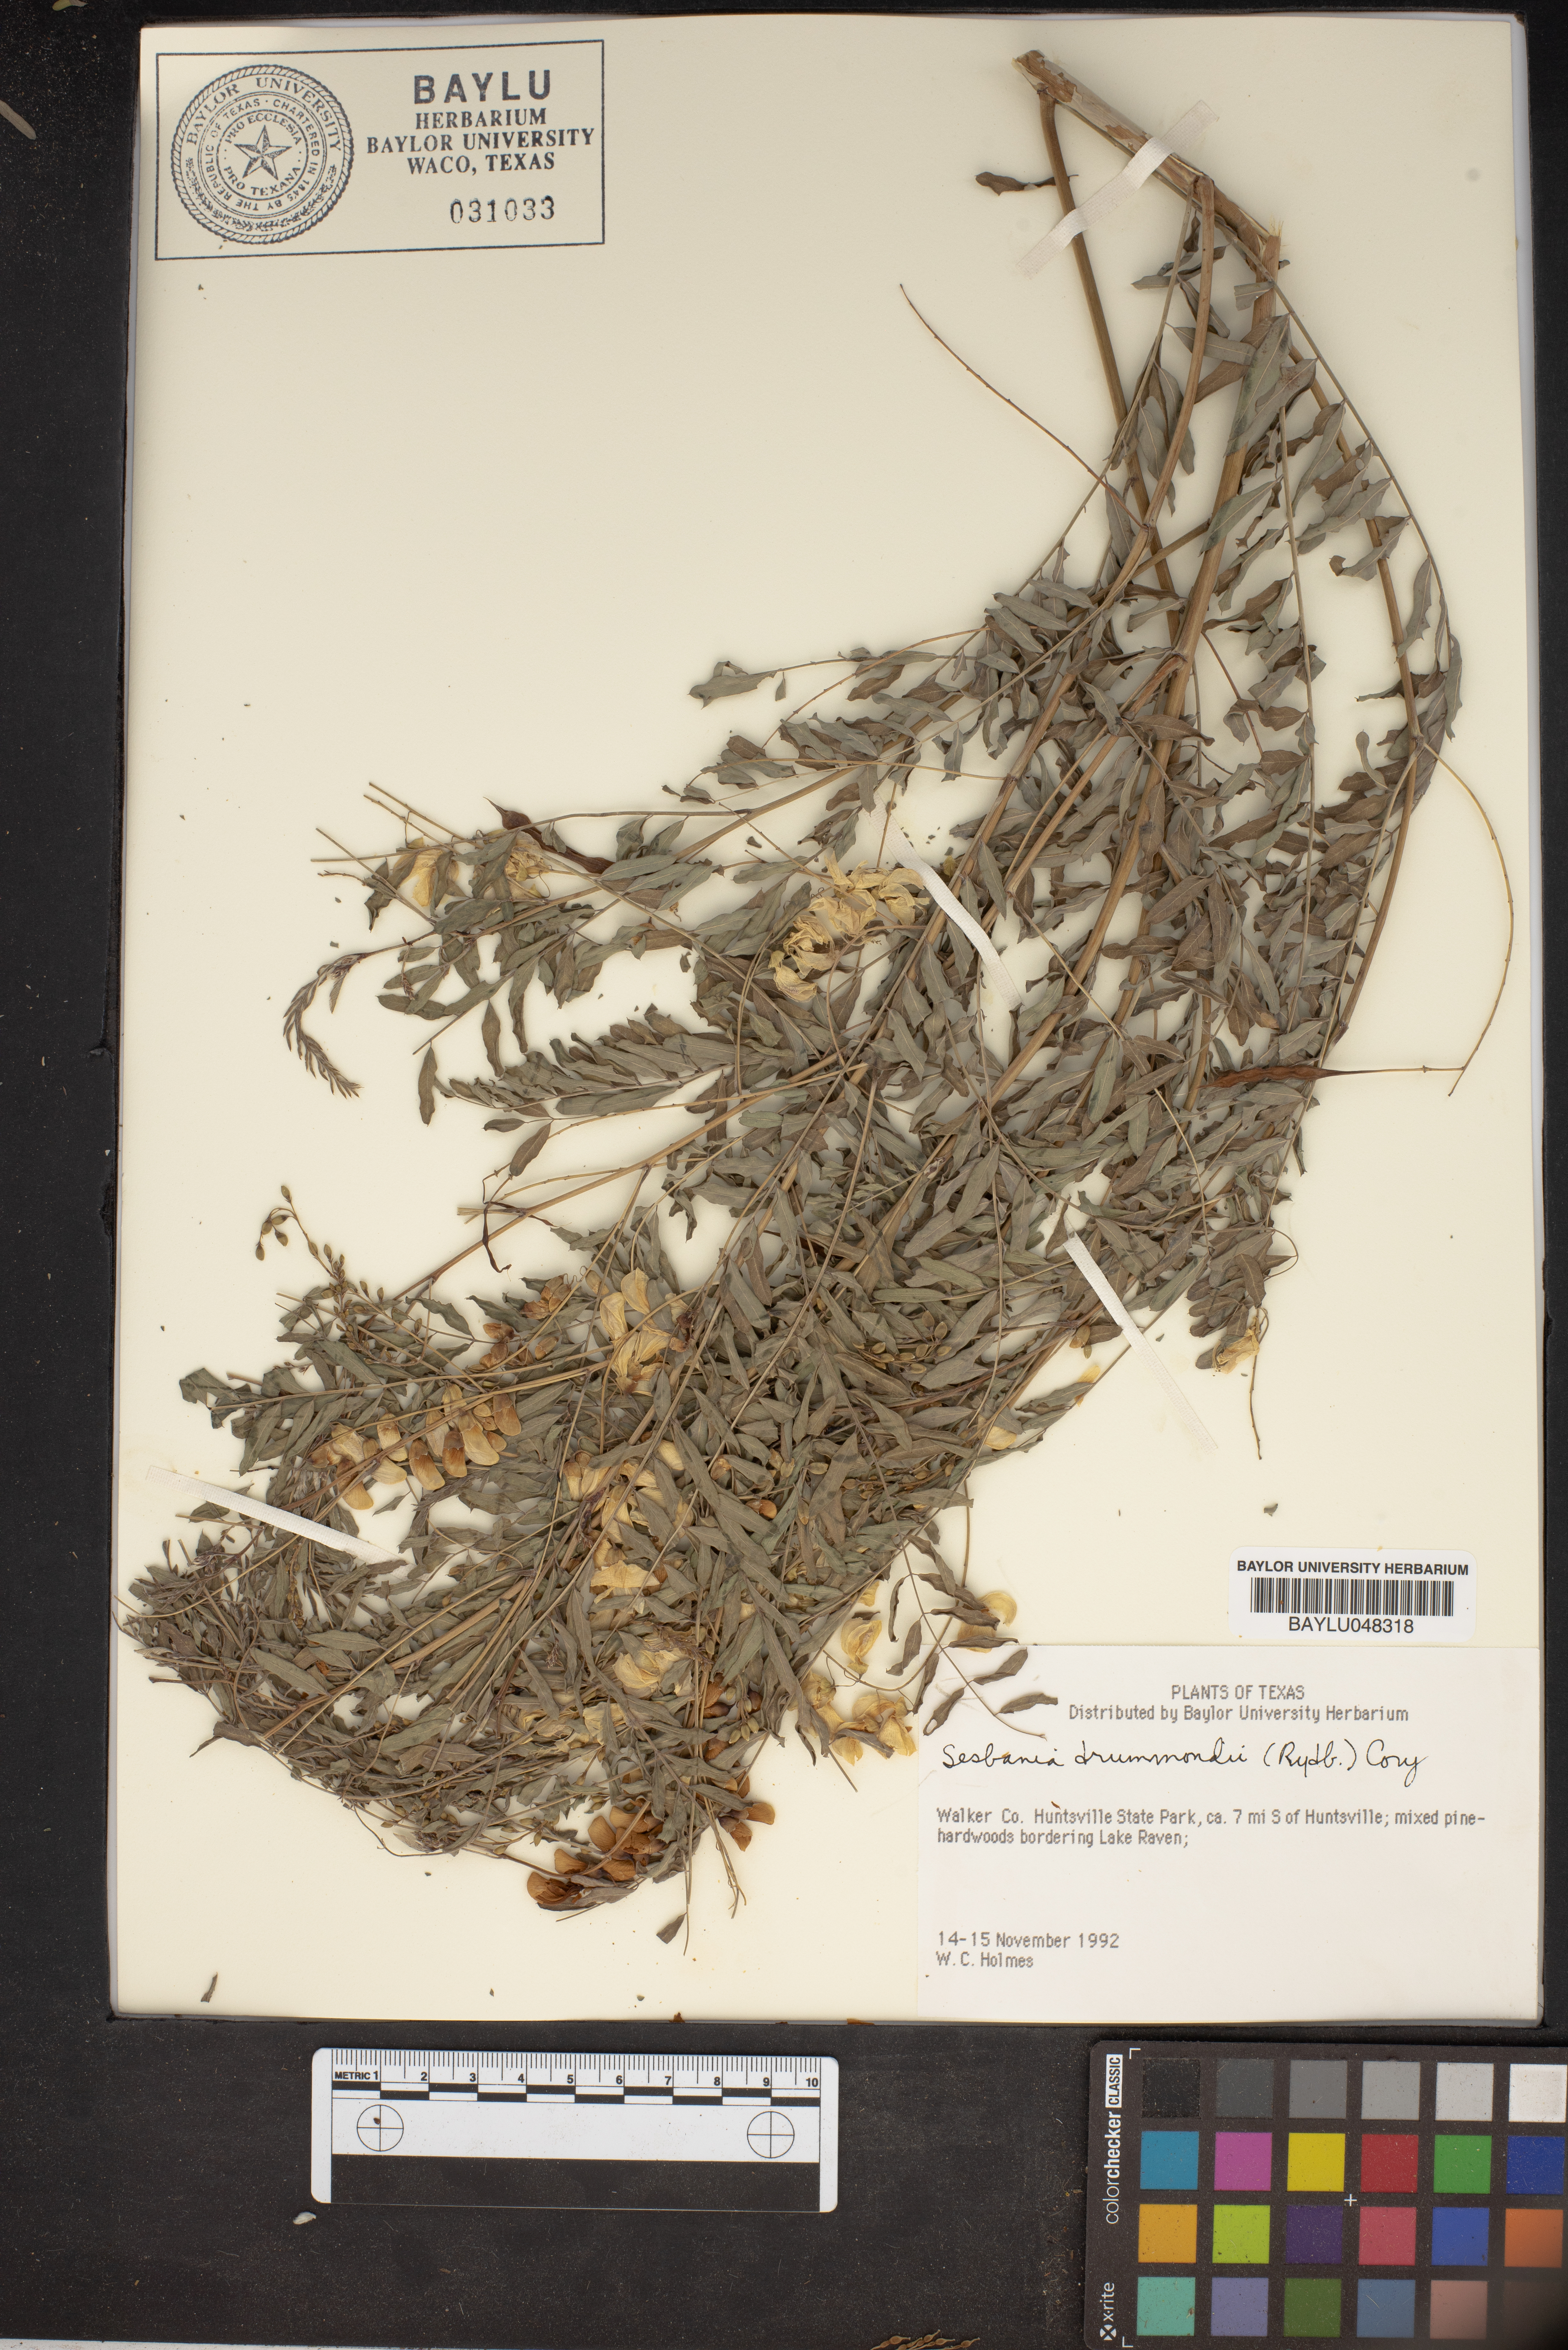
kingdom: Plantae
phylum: Tracheophyta
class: Magnoliopsida
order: Fabales
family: Fabaceae
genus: Sesbania
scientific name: Sesbania drummondii
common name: Poison-bean
